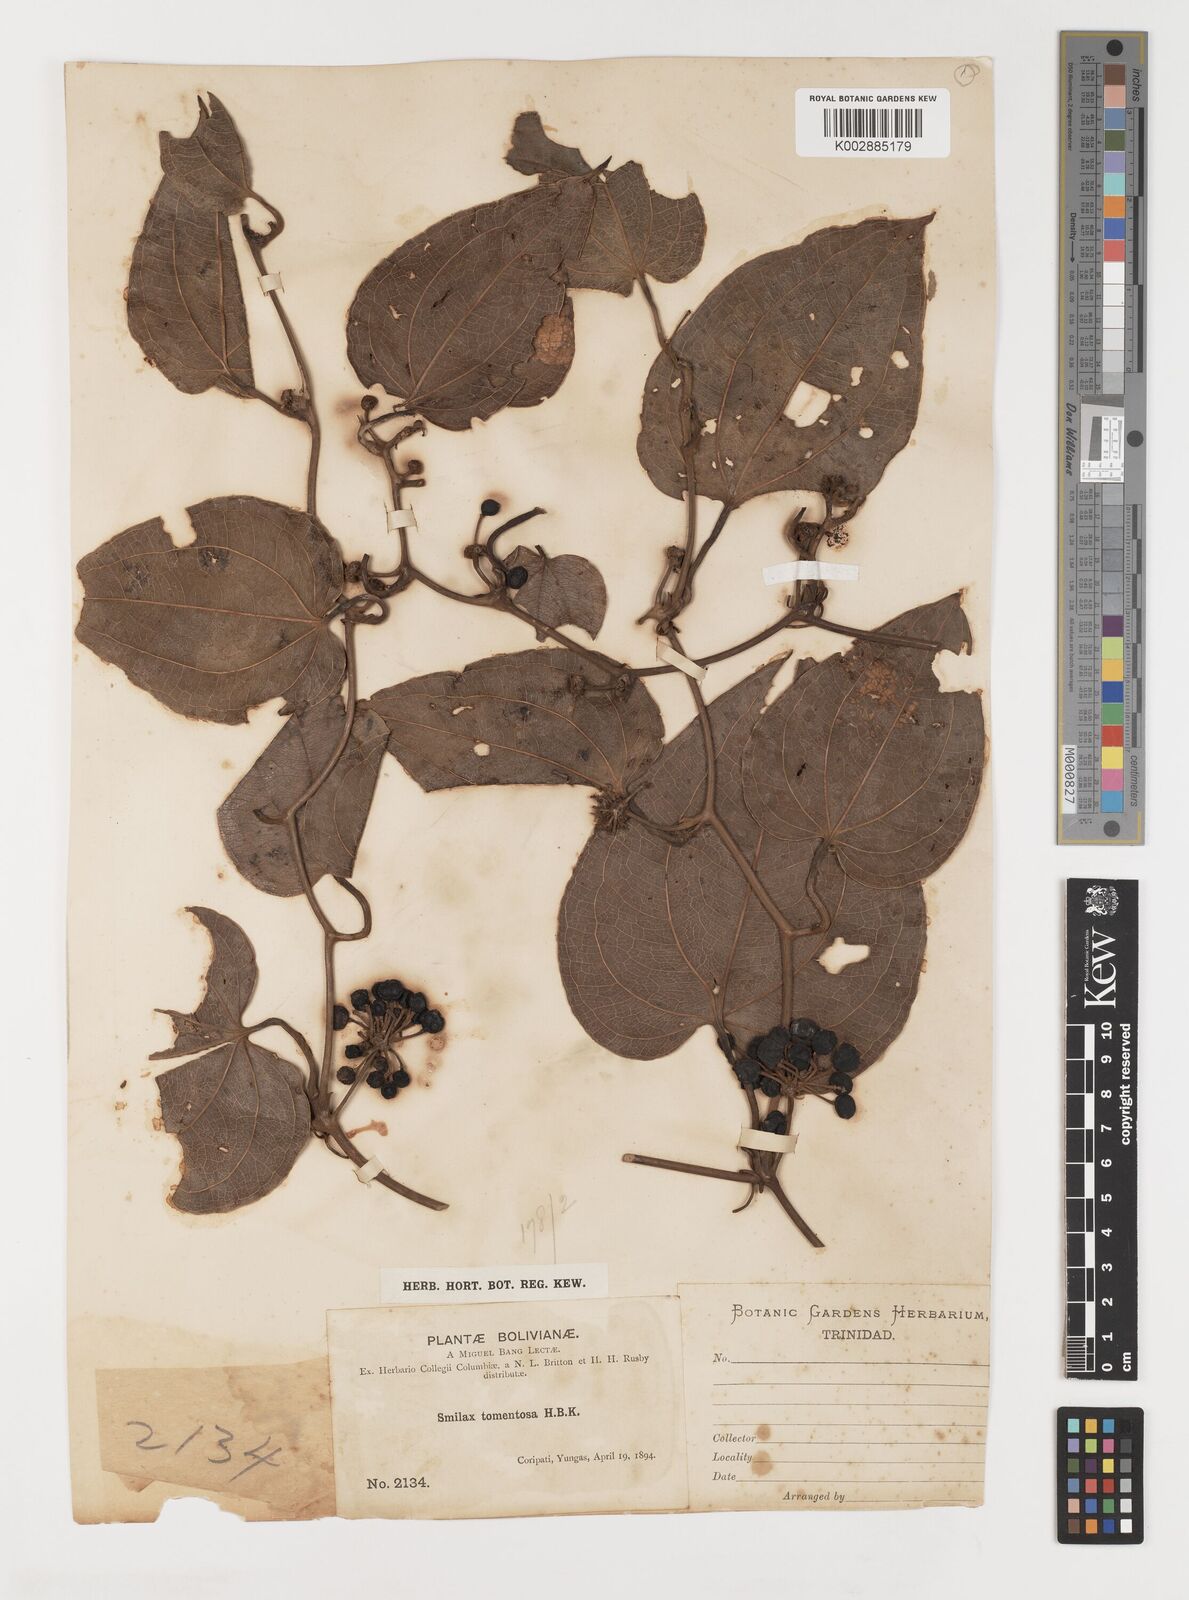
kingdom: Plantae
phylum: Tracheophyta
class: Liliopsida
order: Liliales
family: Smilacaceae
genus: Smilax
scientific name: Smilax tomentosa
